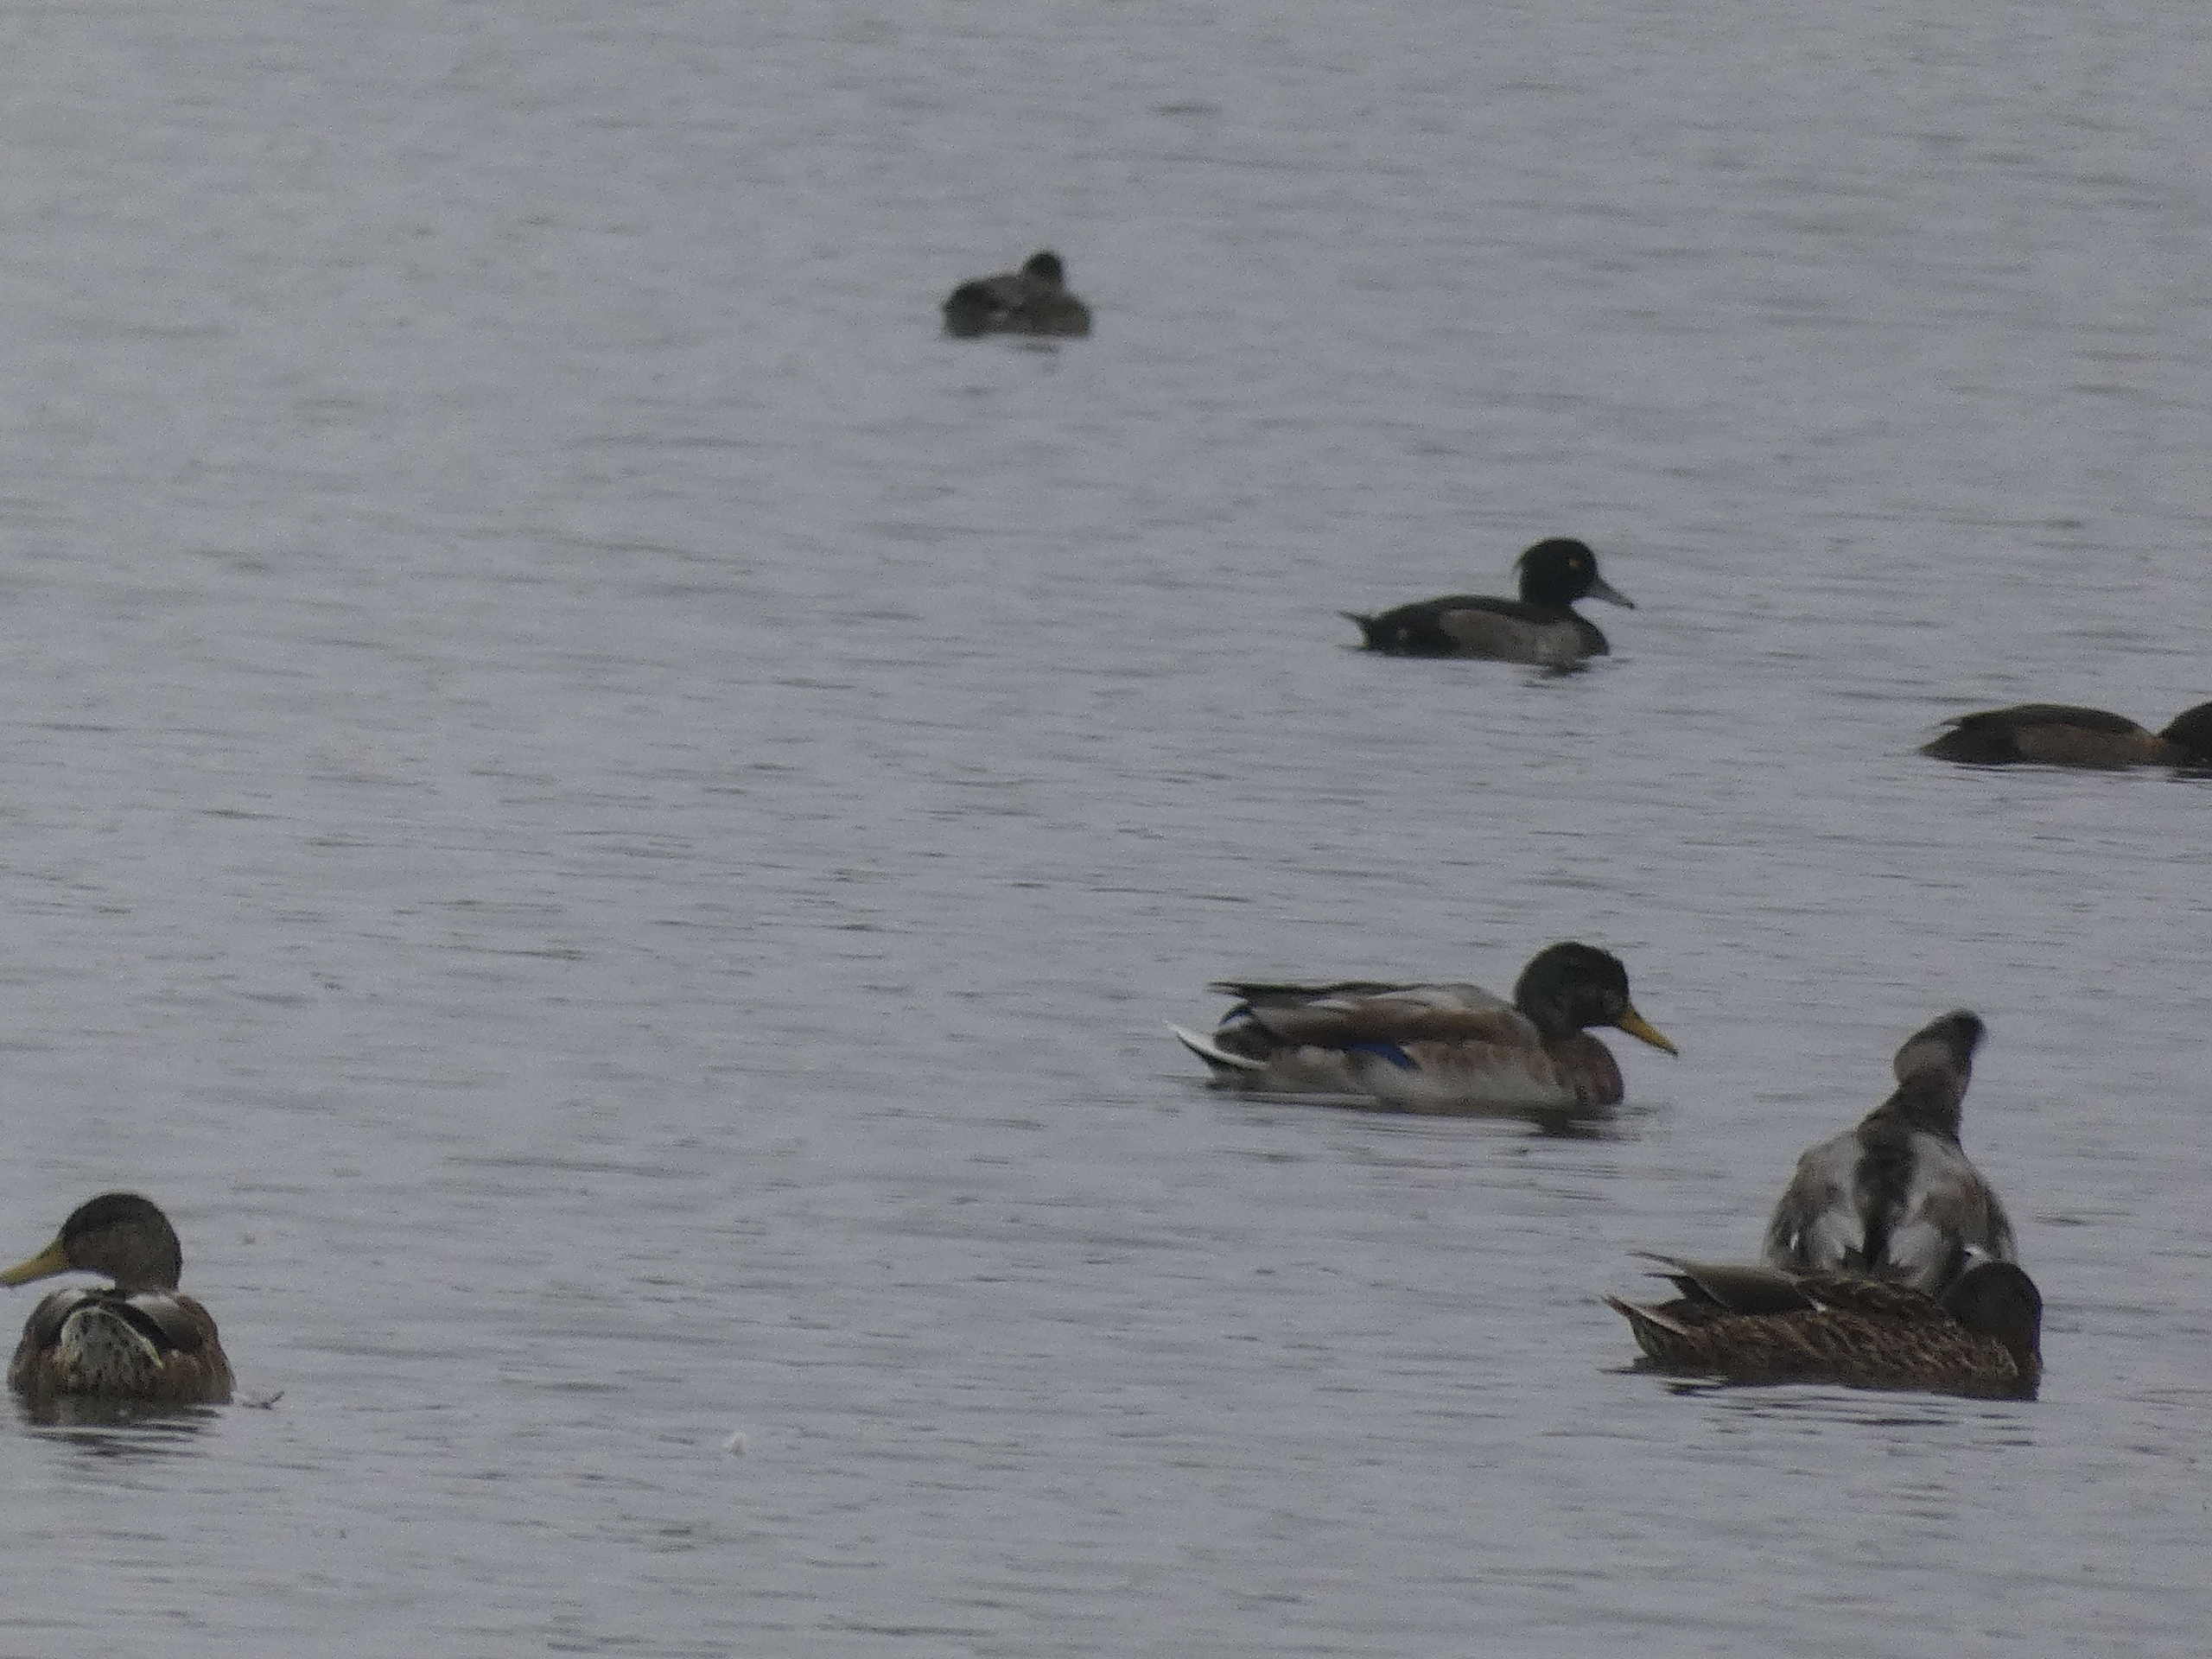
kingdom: Animalia
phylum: Chordata
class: Aves
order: Anseriformes
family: Anatidae
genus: Aythya
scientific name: Aythya fuligula
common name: Troldand
